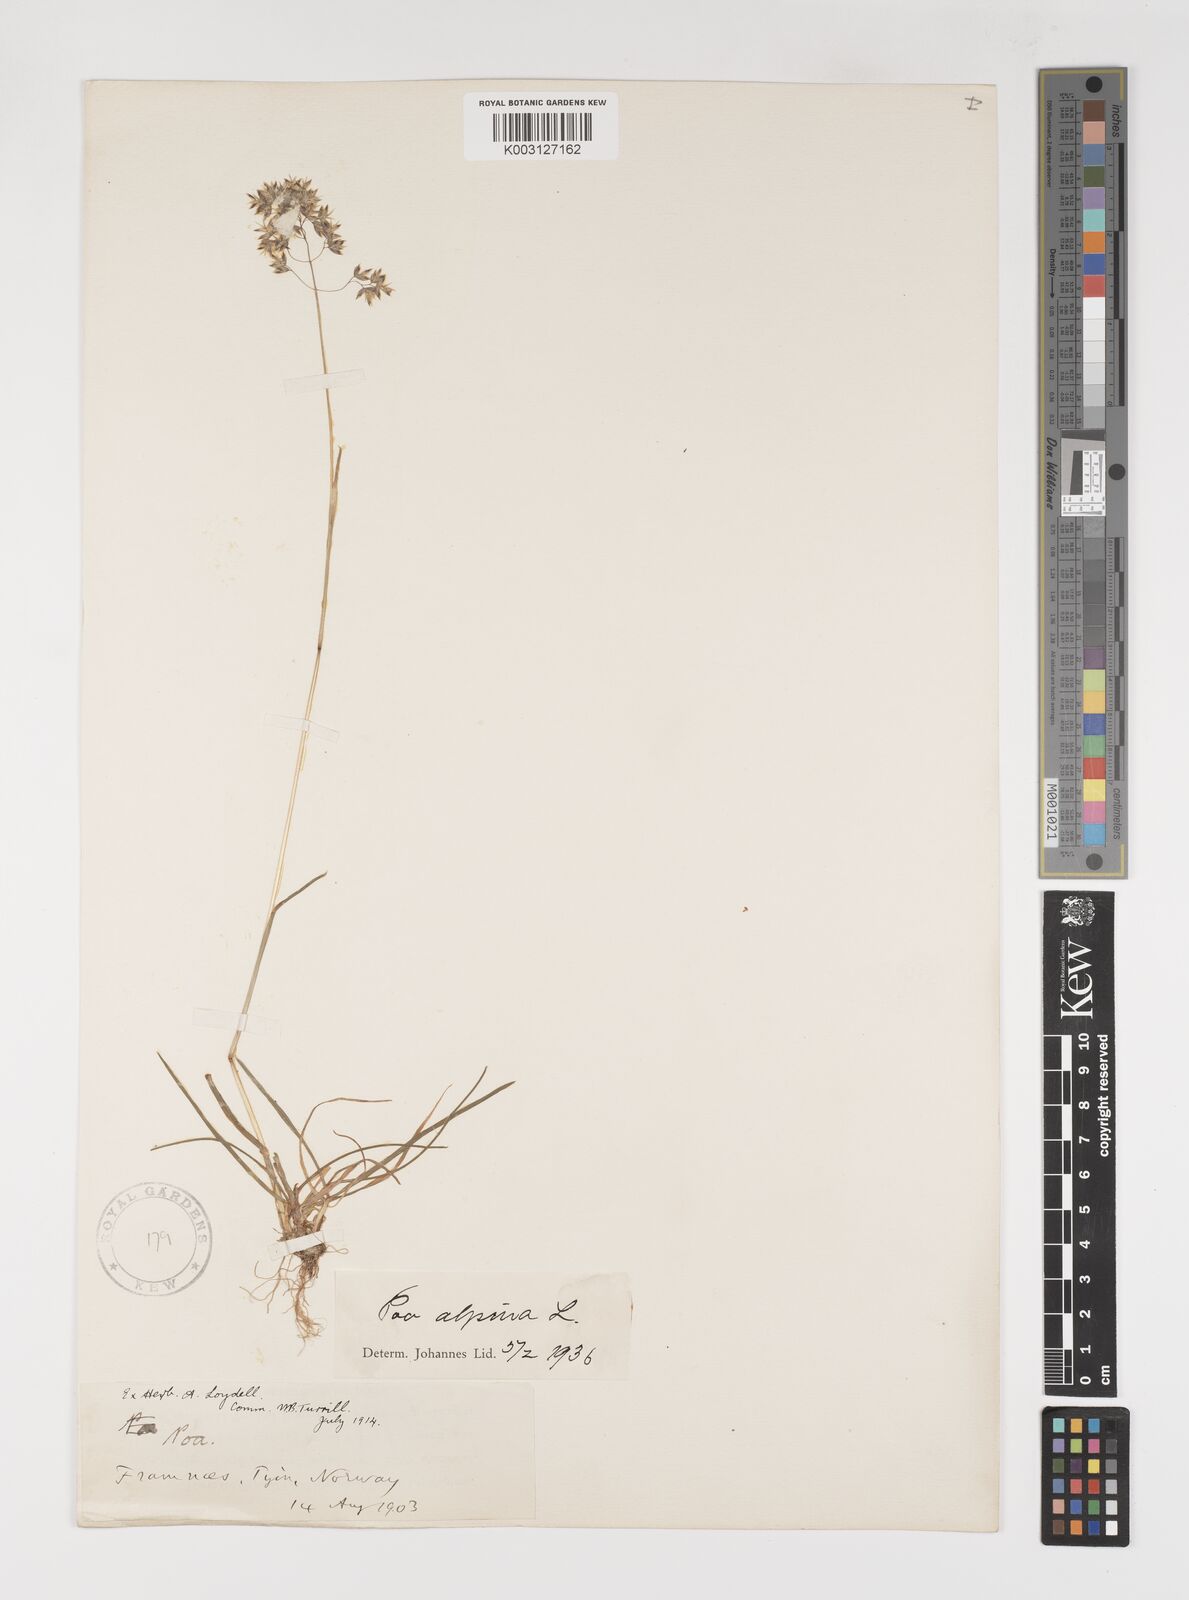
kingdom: Plantae
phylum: Tracheophyta
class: Liliopsida
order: Poales
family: Poaceae
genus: Poa
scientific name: Poa alpina
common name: Alpine bluegrass
